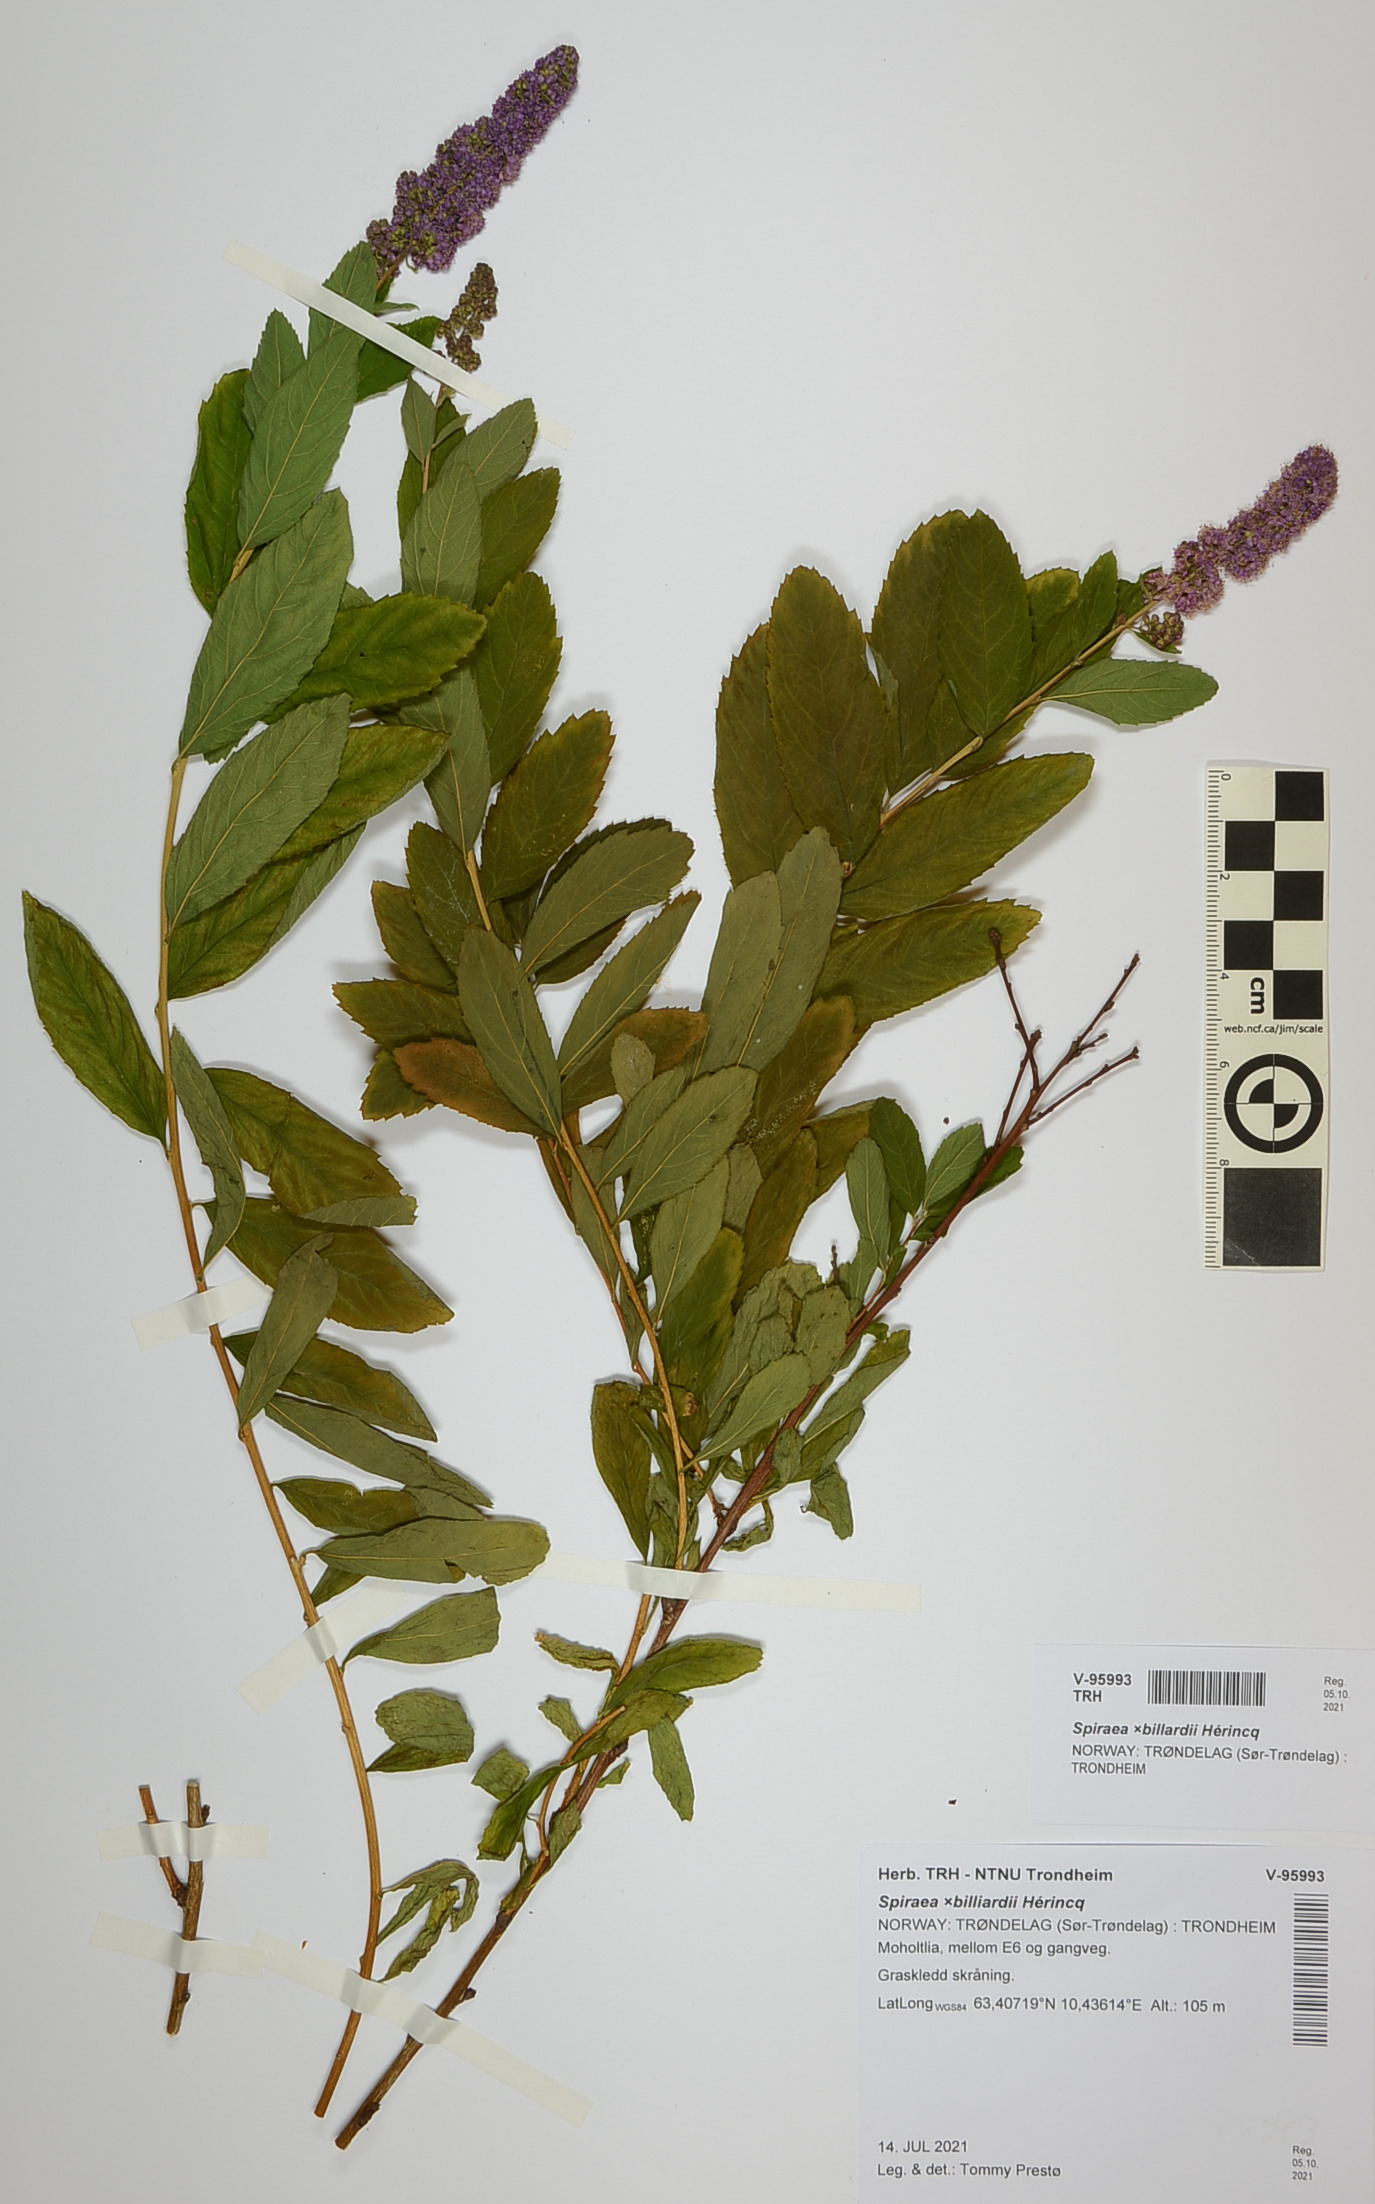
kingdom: Plantae
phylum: Tracheophyta
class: Magnoliopsida
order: Rosales
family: Rosaceae
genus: Spiraea
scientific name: Spiraea billardii
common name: Billard's bridewort
